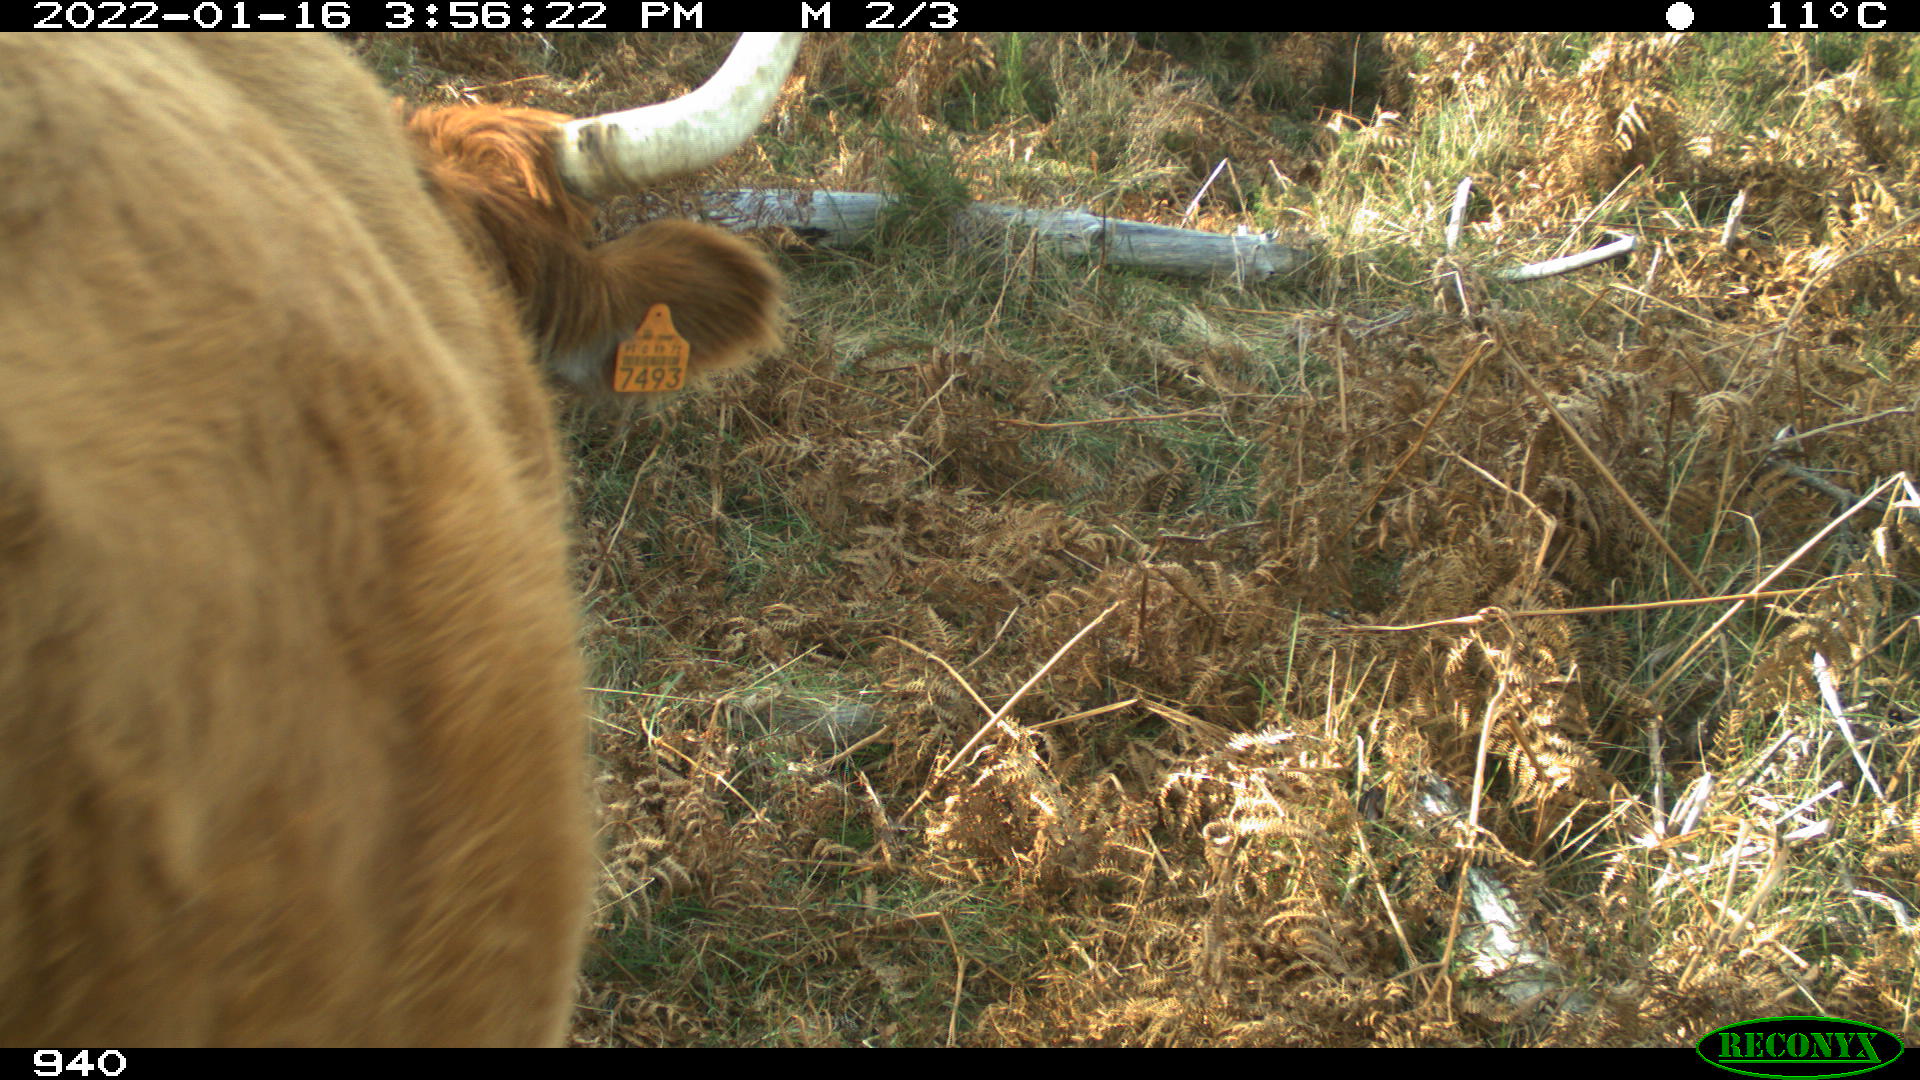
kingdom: Animalia
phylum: Chordata
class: Mammalia
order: Artiodactyla
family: Bovidae
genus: Bos
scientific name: Bos taurus
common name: Domesticated cattle
